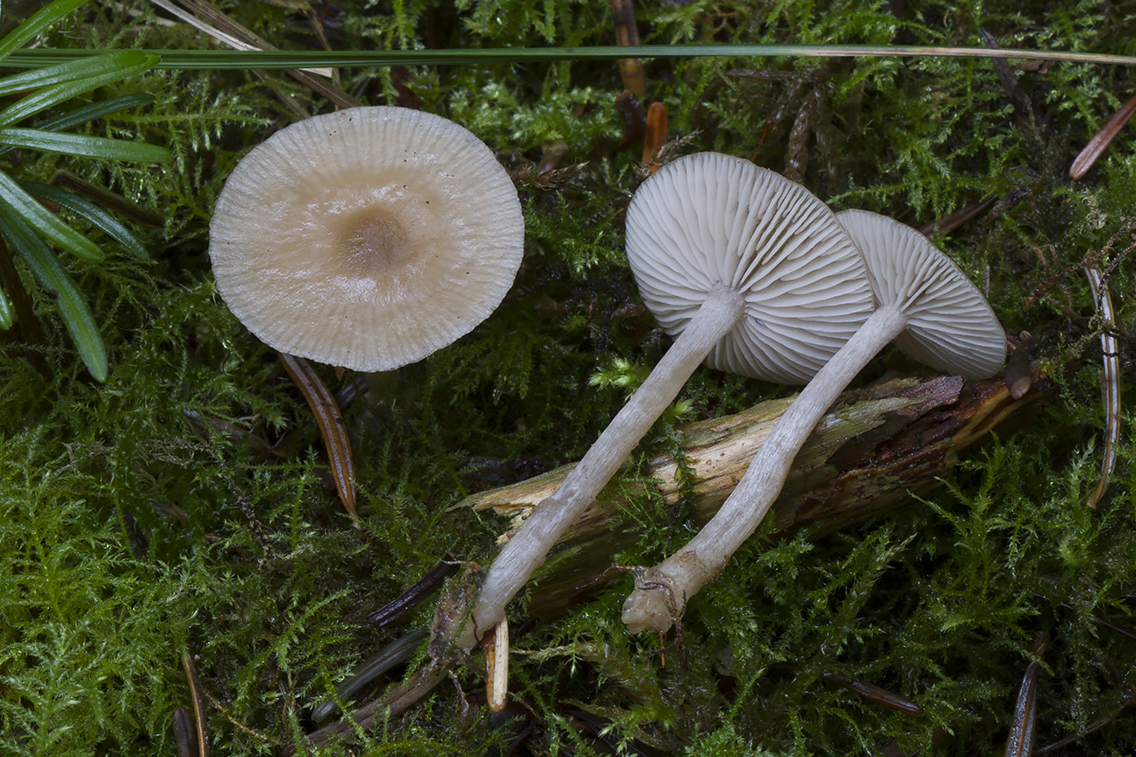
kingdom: Fungi
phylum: Basidiomycota
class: Agaricomycetes
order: Agaricales
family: Tricholomataceae
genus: Clitocybe
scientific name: Clitocybe obsoleta
